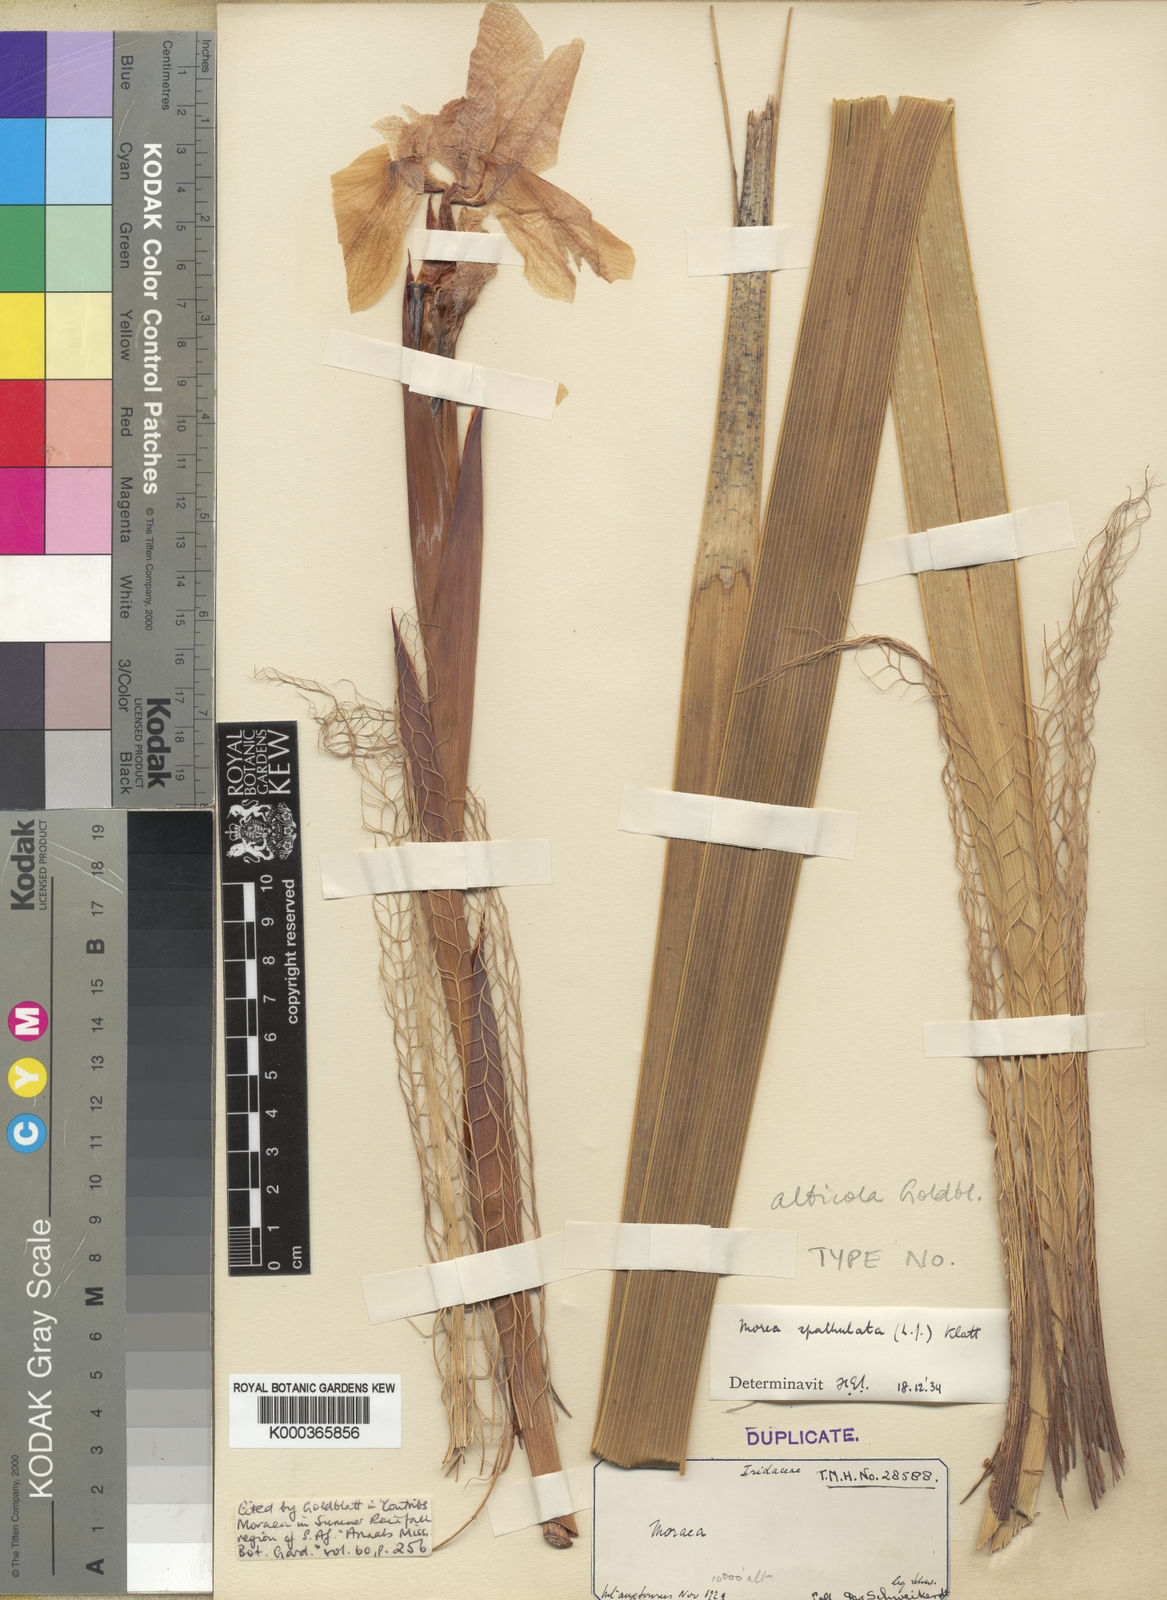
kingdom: Plantae
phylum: Tracheophyta
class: Liliopsida
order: Asparagales
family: Iridaceae
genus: Moraea
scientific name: Moraea alticola
